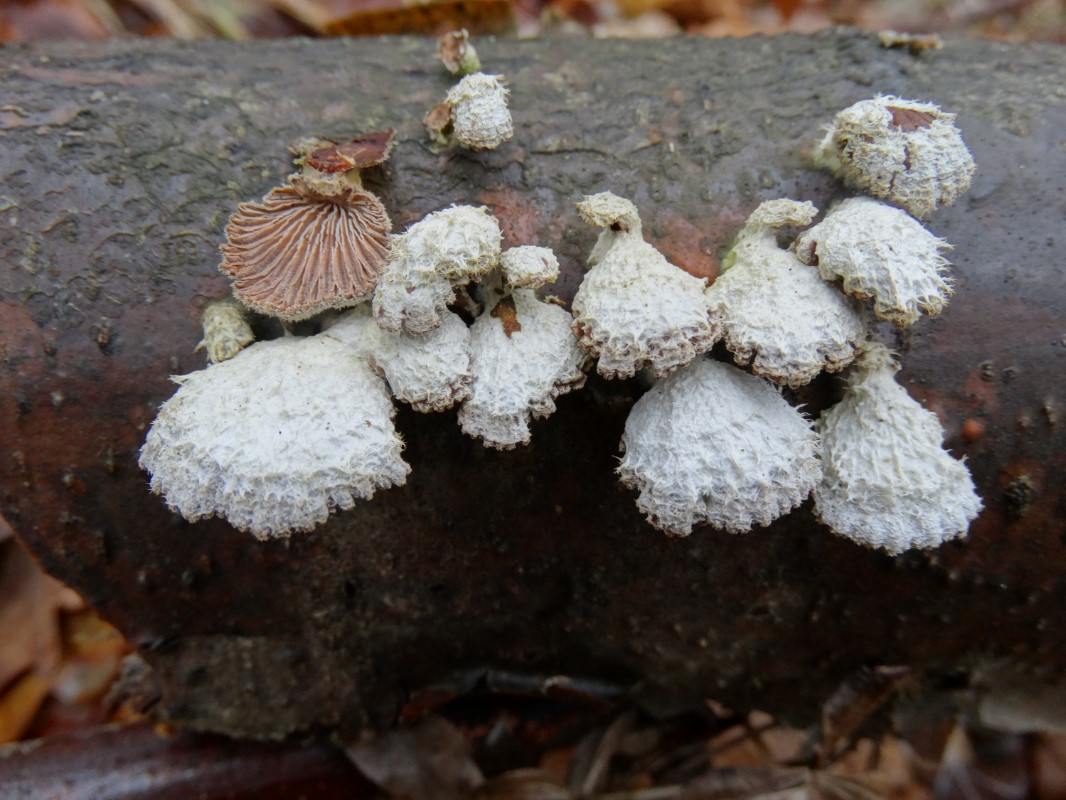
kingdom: Fungi
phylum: Basidiomycota
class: Agaricomycetes
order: Agaricales
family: Schizophyllaceae
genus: Schizophyllum
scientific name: Schizophyllum commune
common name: kløvblad
